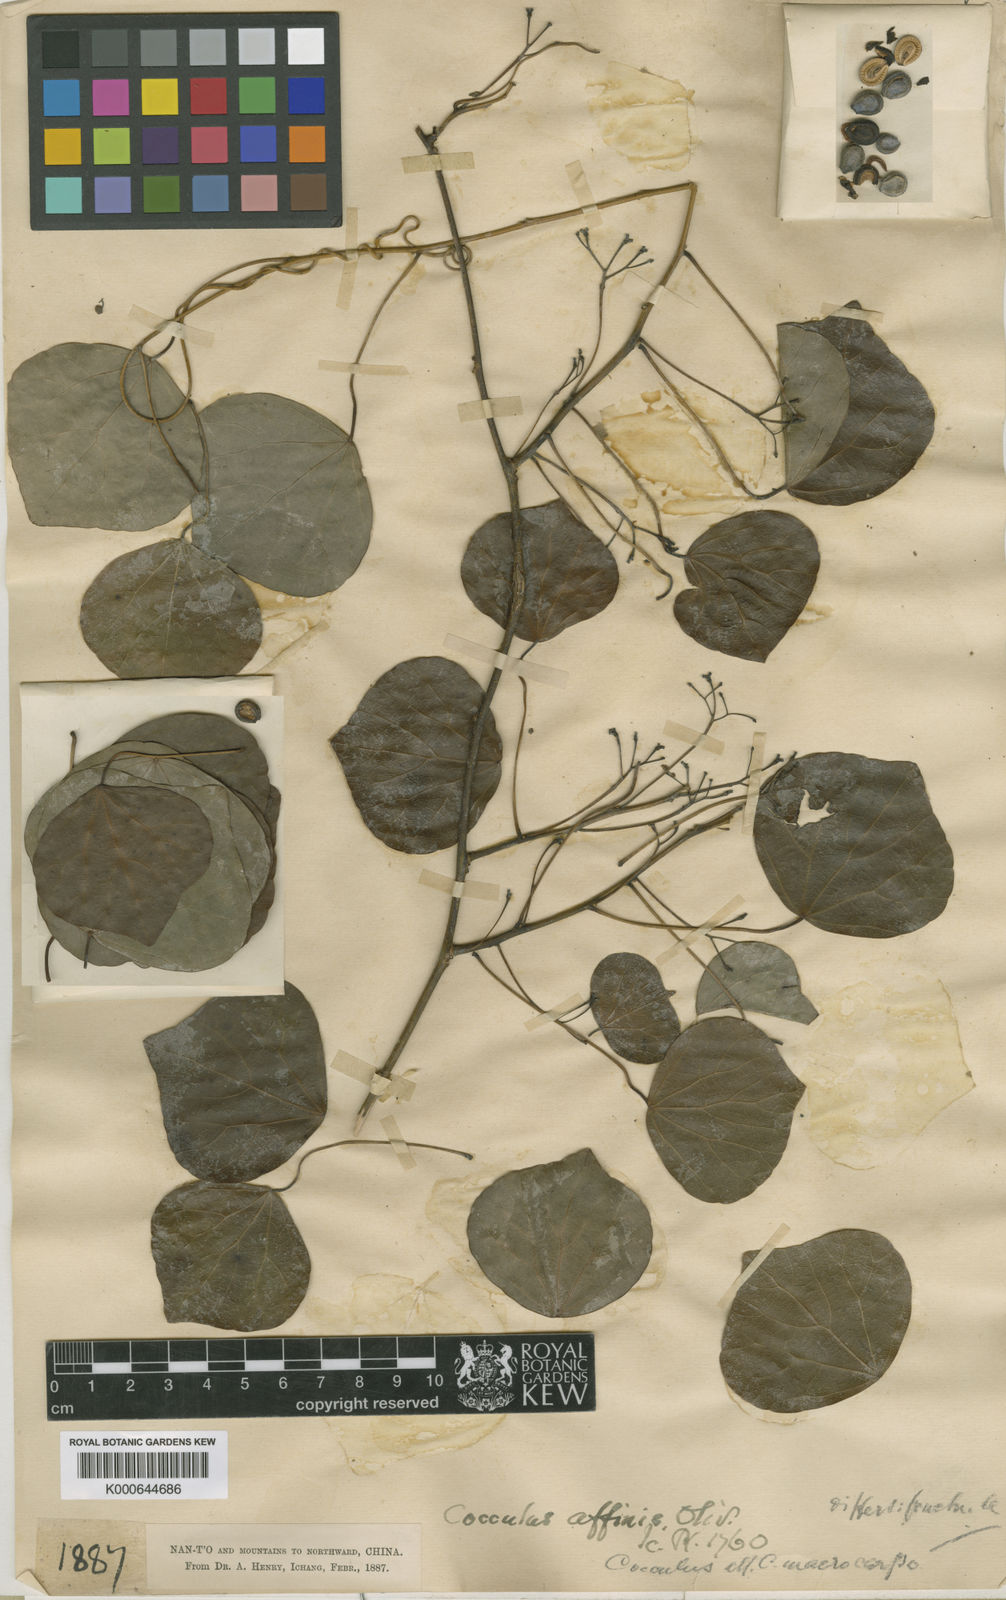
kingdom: Plantae
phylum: Tracheophyta
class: Magnoliopsida
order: Ranunculales
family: Menispermaceae
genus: Diploclisia
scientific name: Diploclisia affinis
